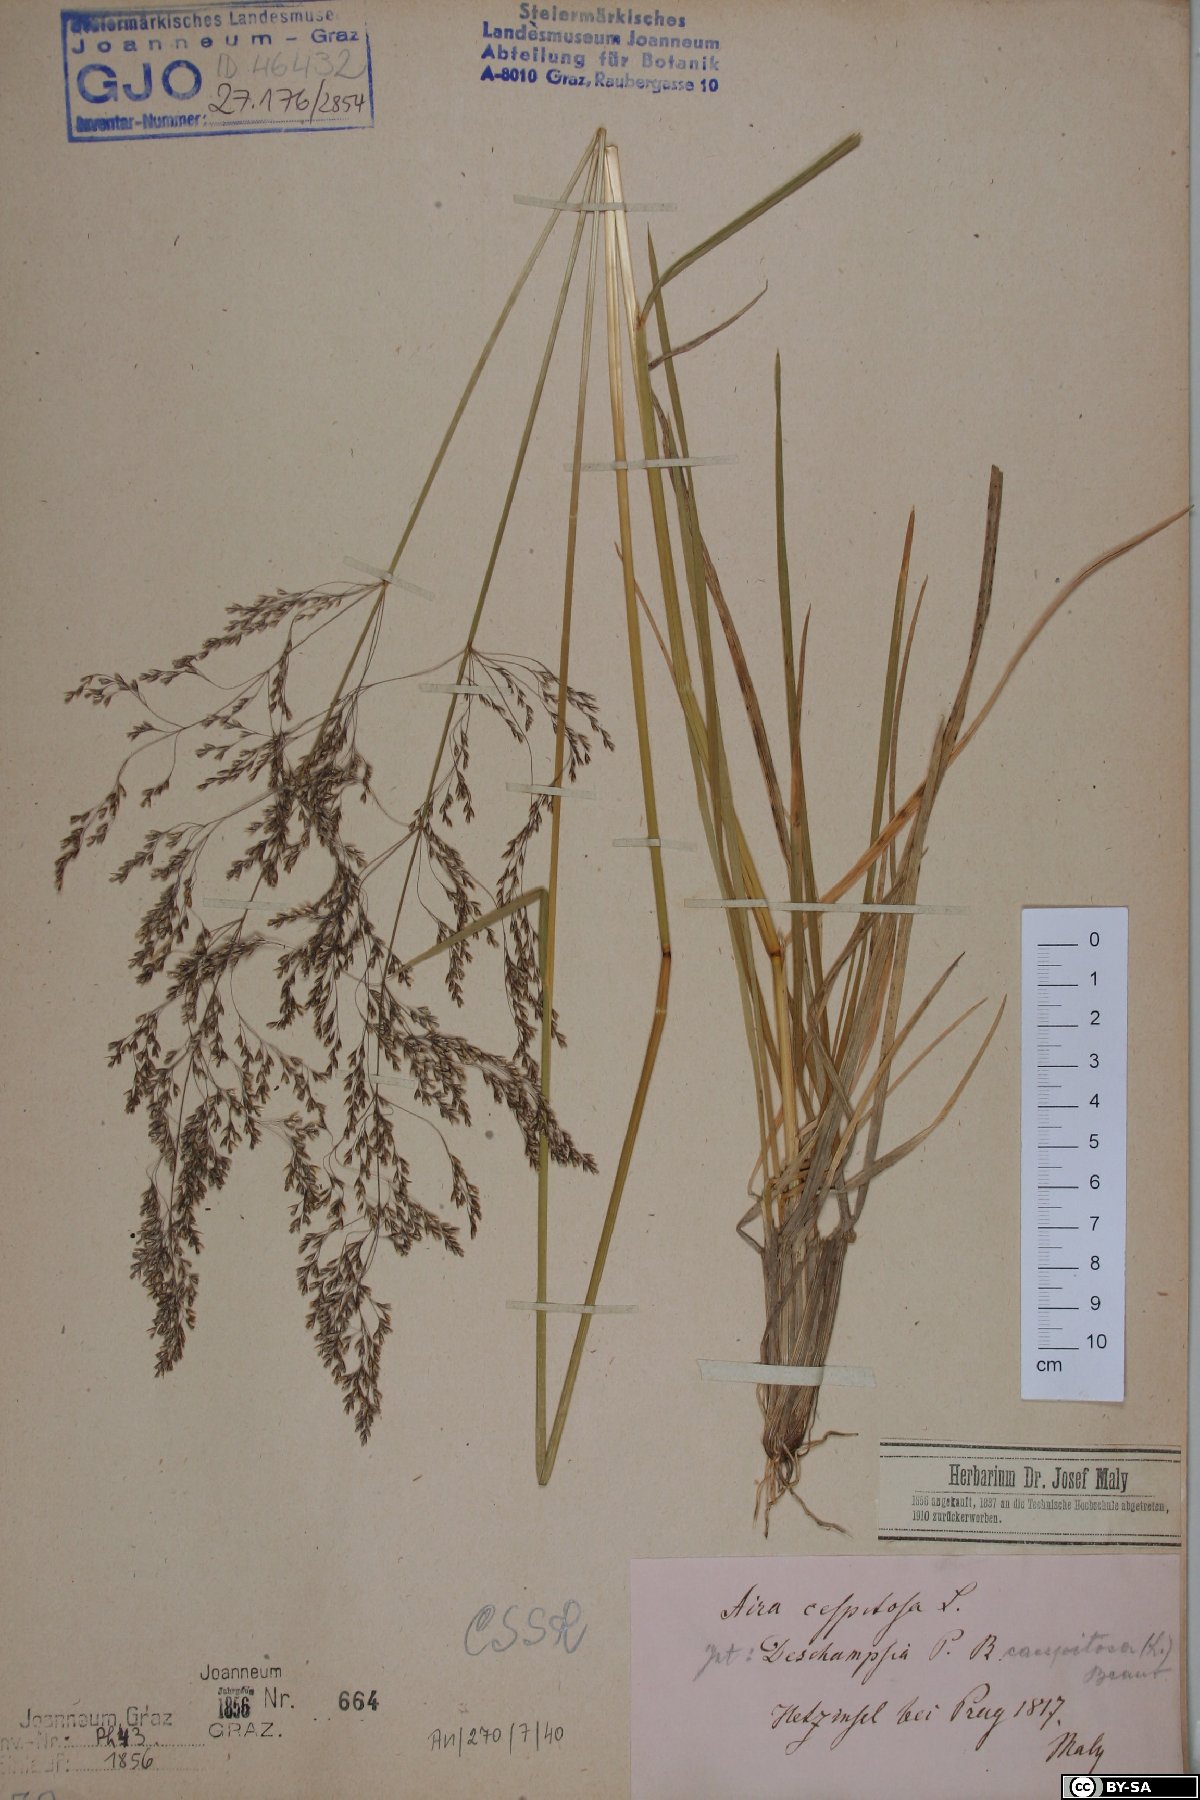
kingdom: Plantae
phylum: Tracheophyta
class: Liliopsida
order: Poales
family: Poaceae
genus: Deschampsia
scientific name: Deschampsia cespitosa
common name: Tufted hair-grass
